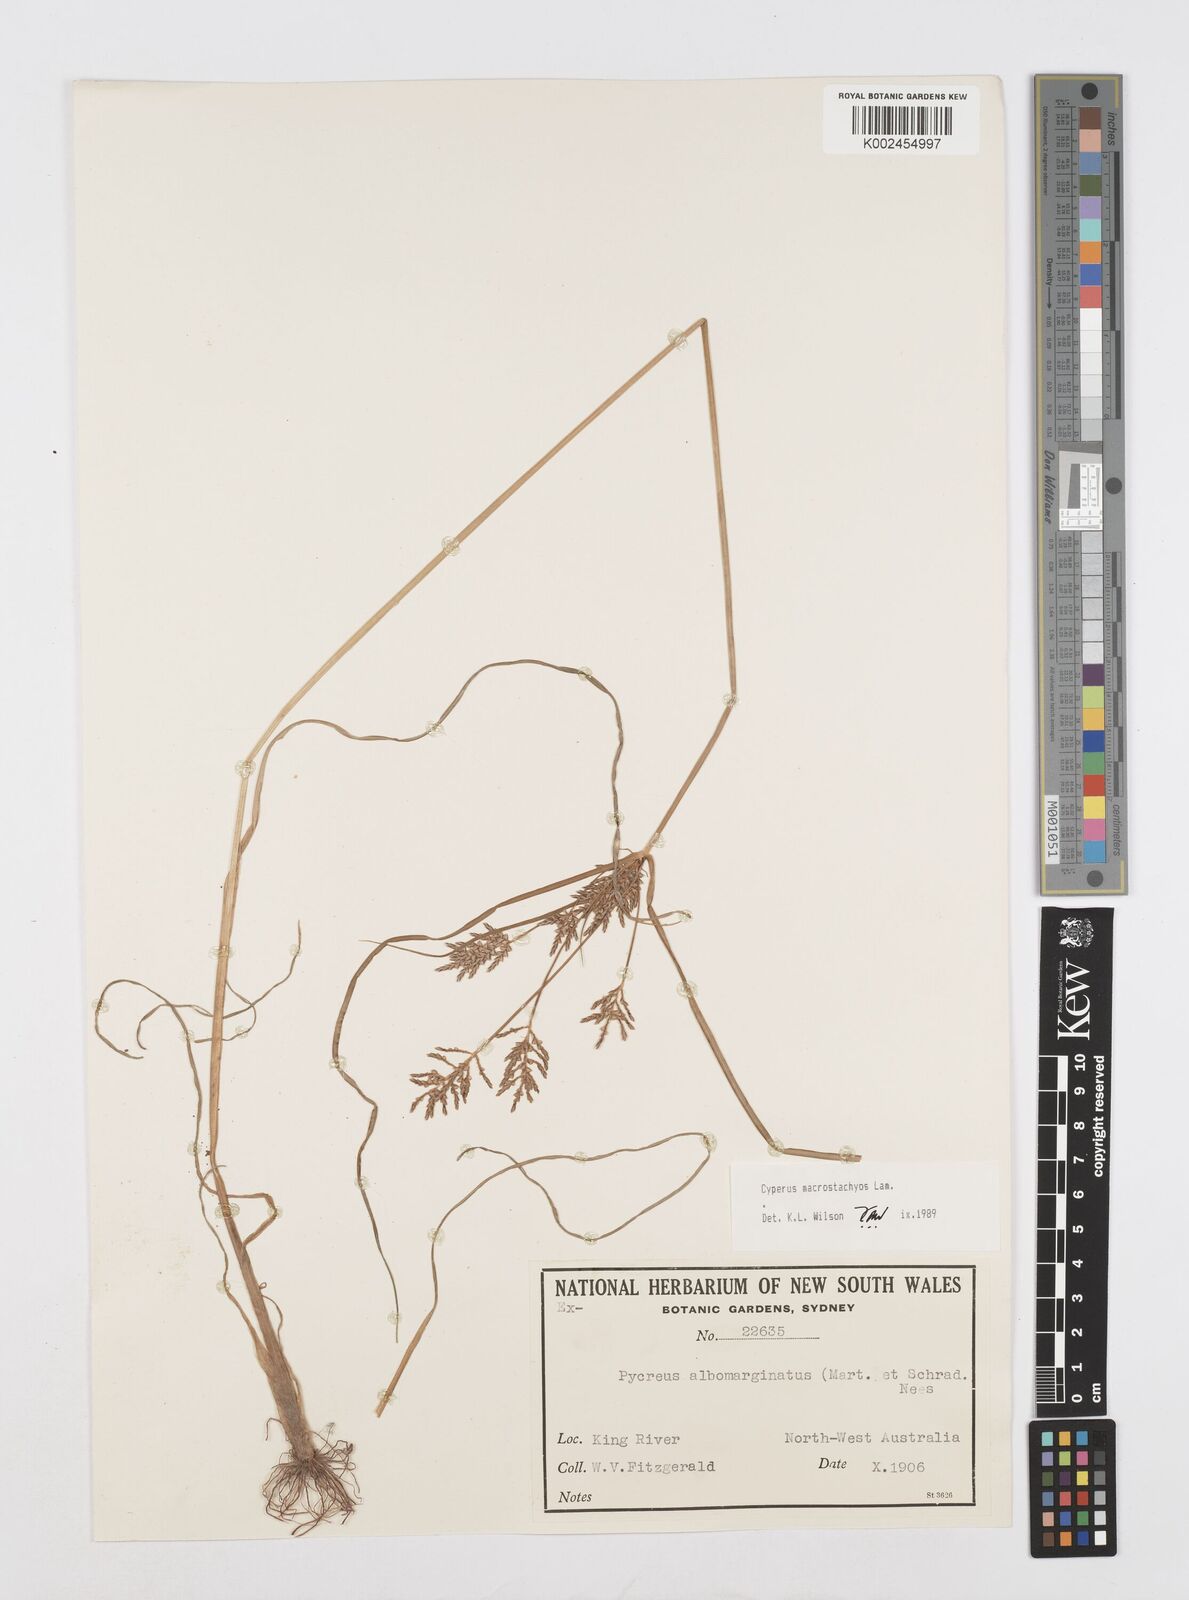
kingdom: Plantae
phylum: Tracheophyta
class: Liliopsida
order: Poales
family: Cyperaceae
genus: Cyperus
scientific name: Cyperus macrostachyos
